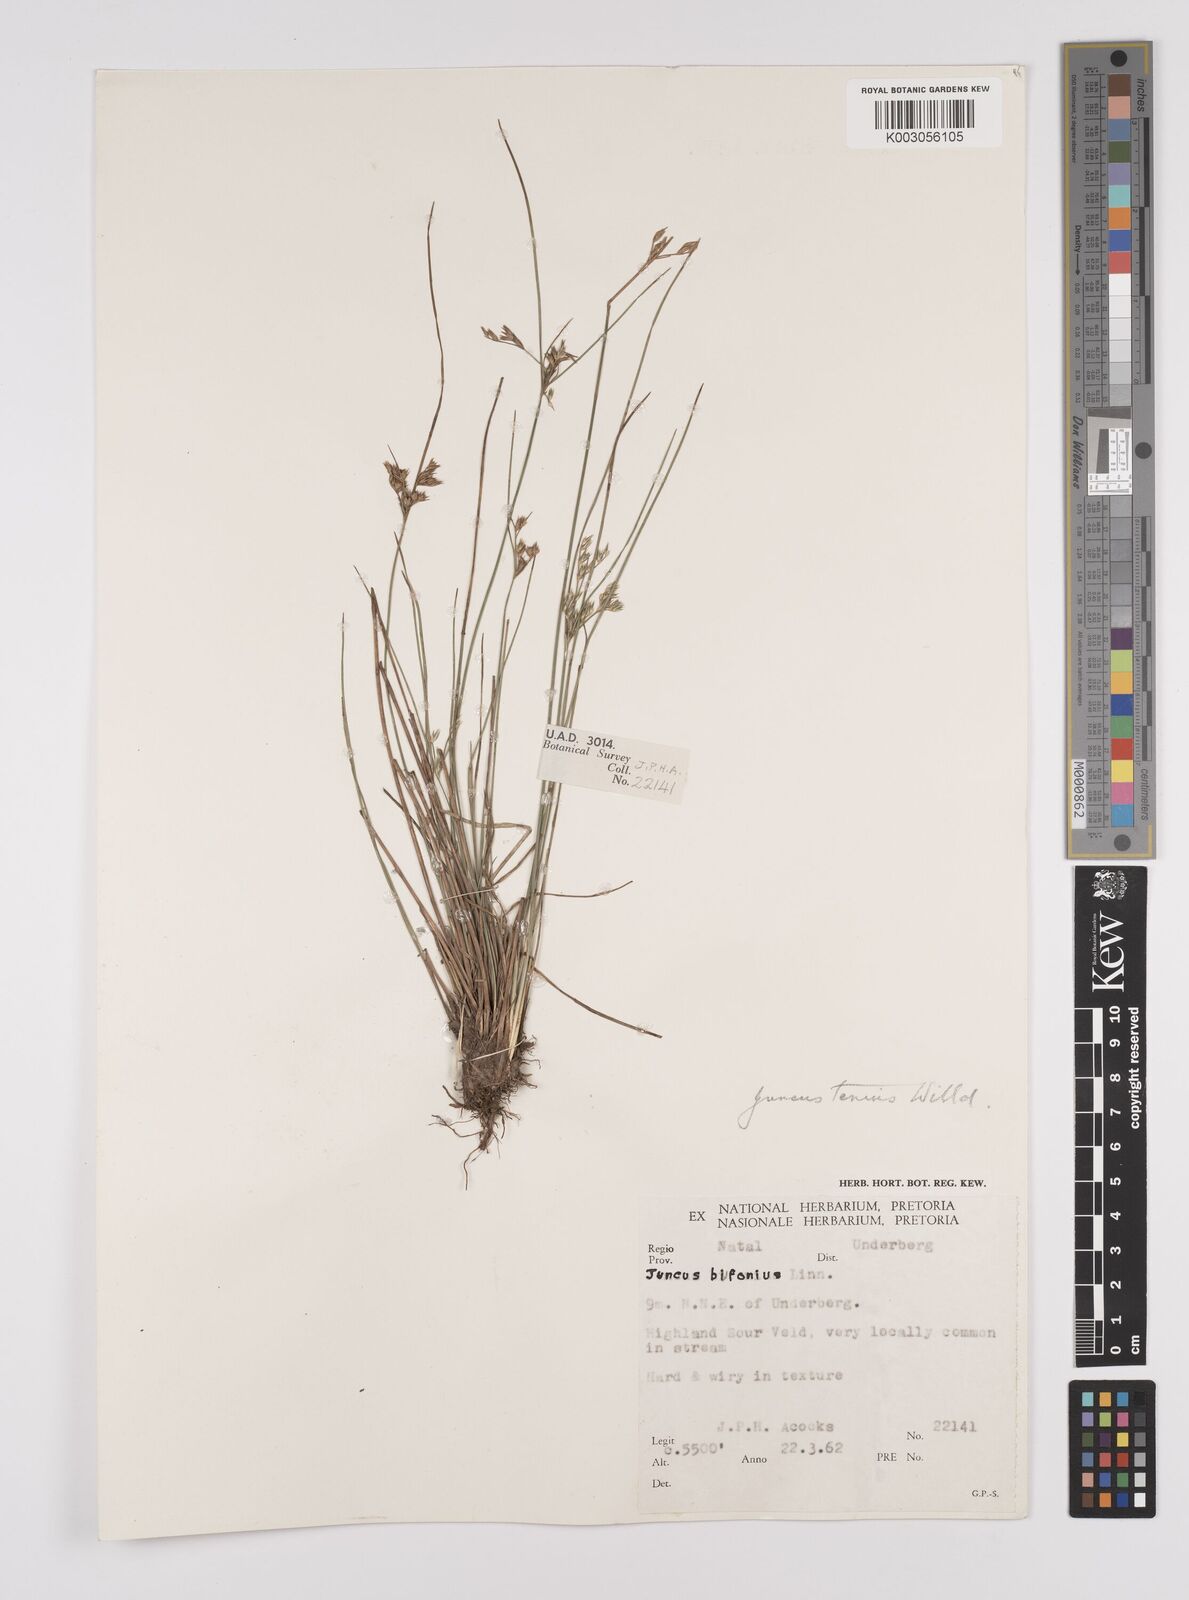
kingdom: Plantae
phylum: Tracheophyta
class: Liliopsida
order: Poales
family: Juncaceae
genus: Juncus
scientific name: Juncus tenuis
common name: Slender rush
